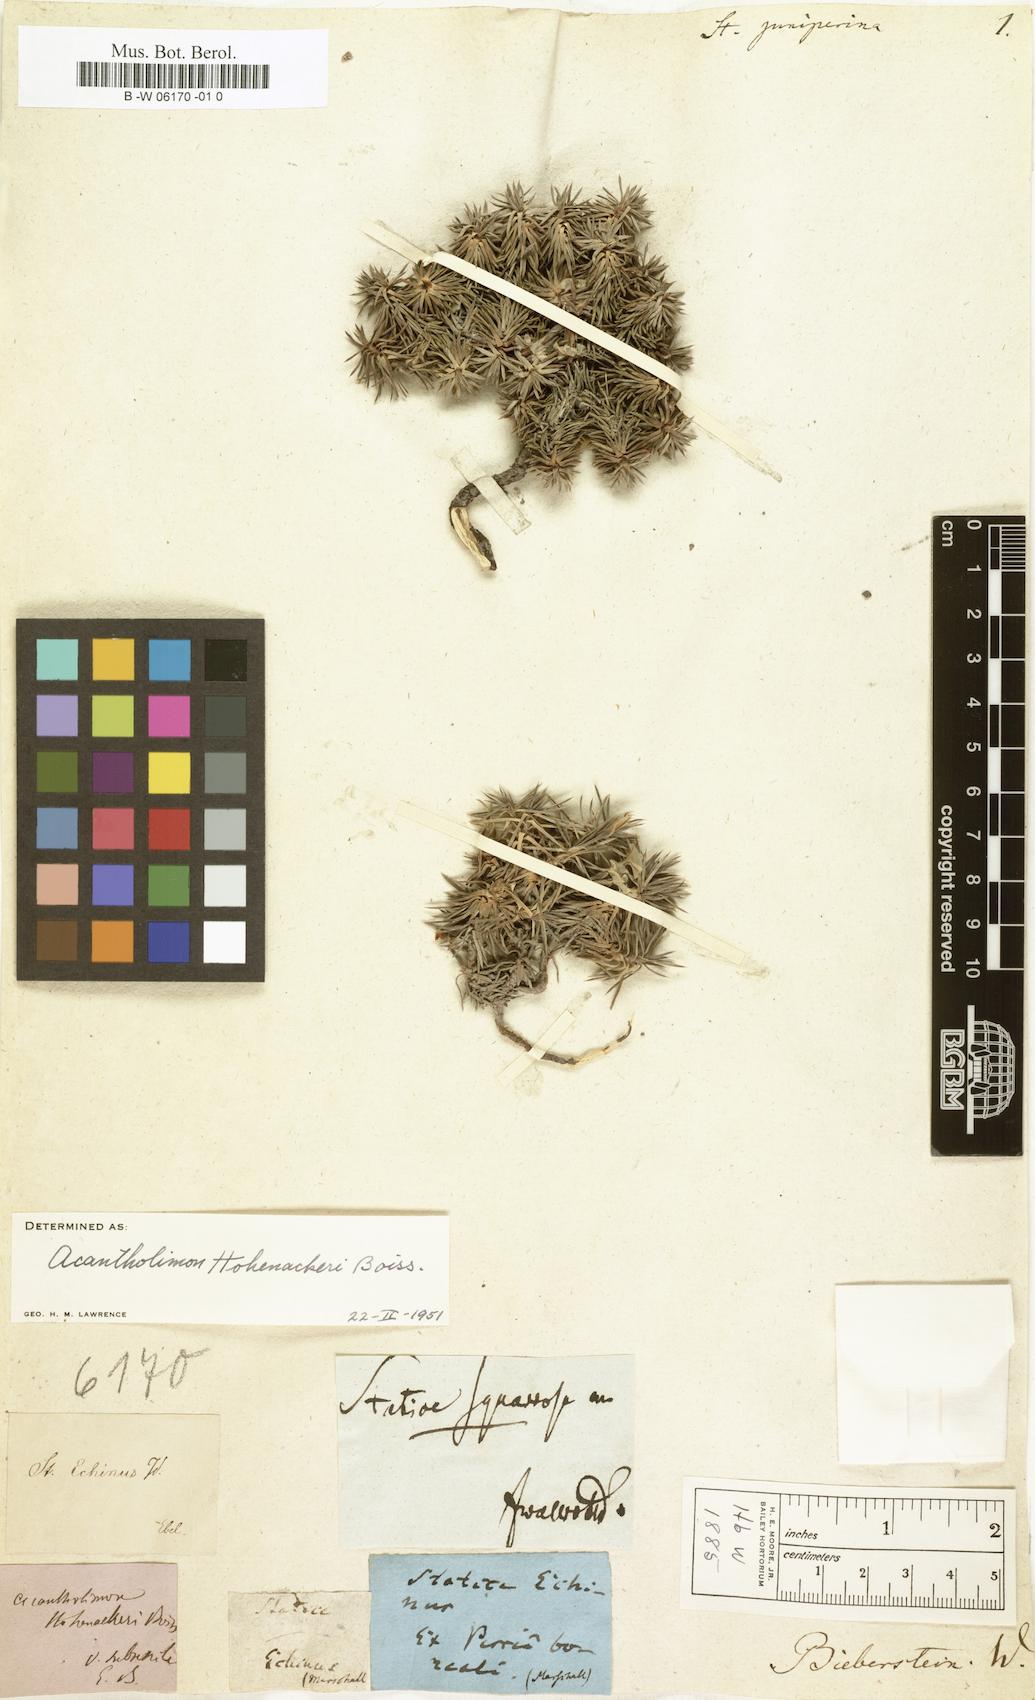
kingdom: Plantae
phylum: Tracheophyta
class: Magnoliopsida
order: Caryophyllales
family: Plumbaginaceae
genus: Acantholimon
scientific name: Acantholimon hohenackeri
